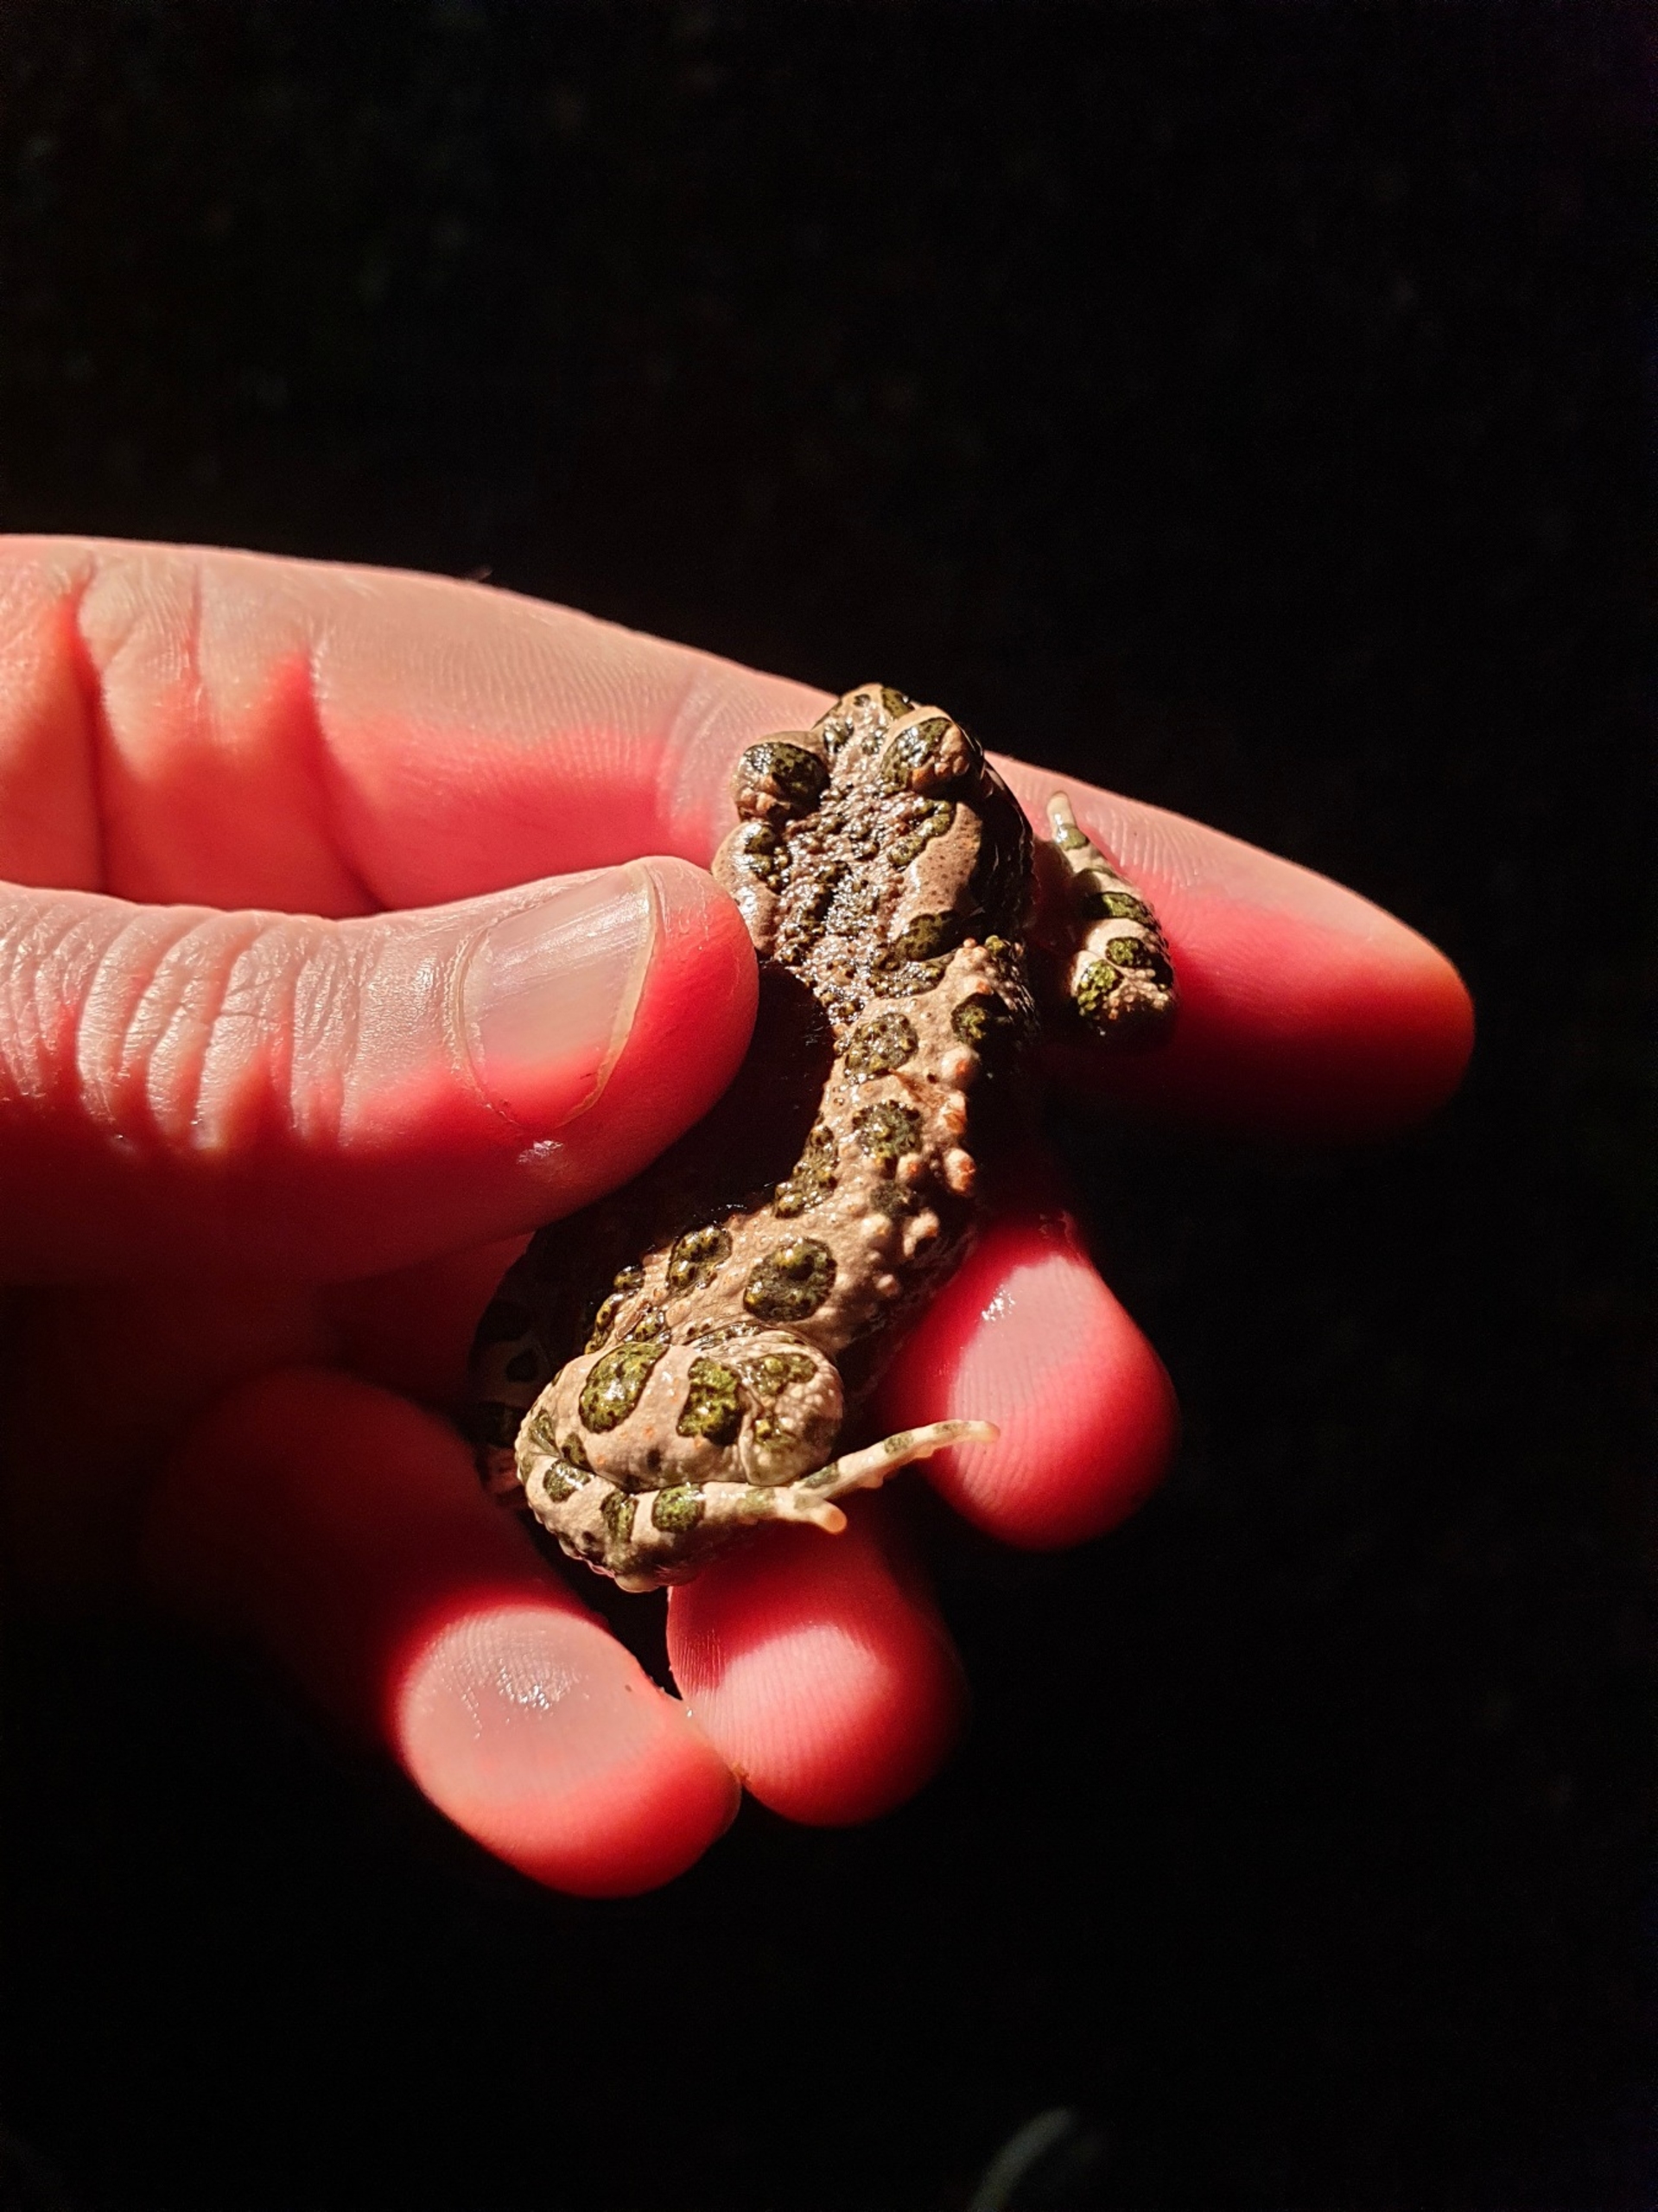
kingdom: Animalia
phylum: Chordata
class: Amphibia
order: Anura
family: Bufonidae
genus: Bufotes
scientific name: Bufotes viridis
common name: Grønbroget tudse
